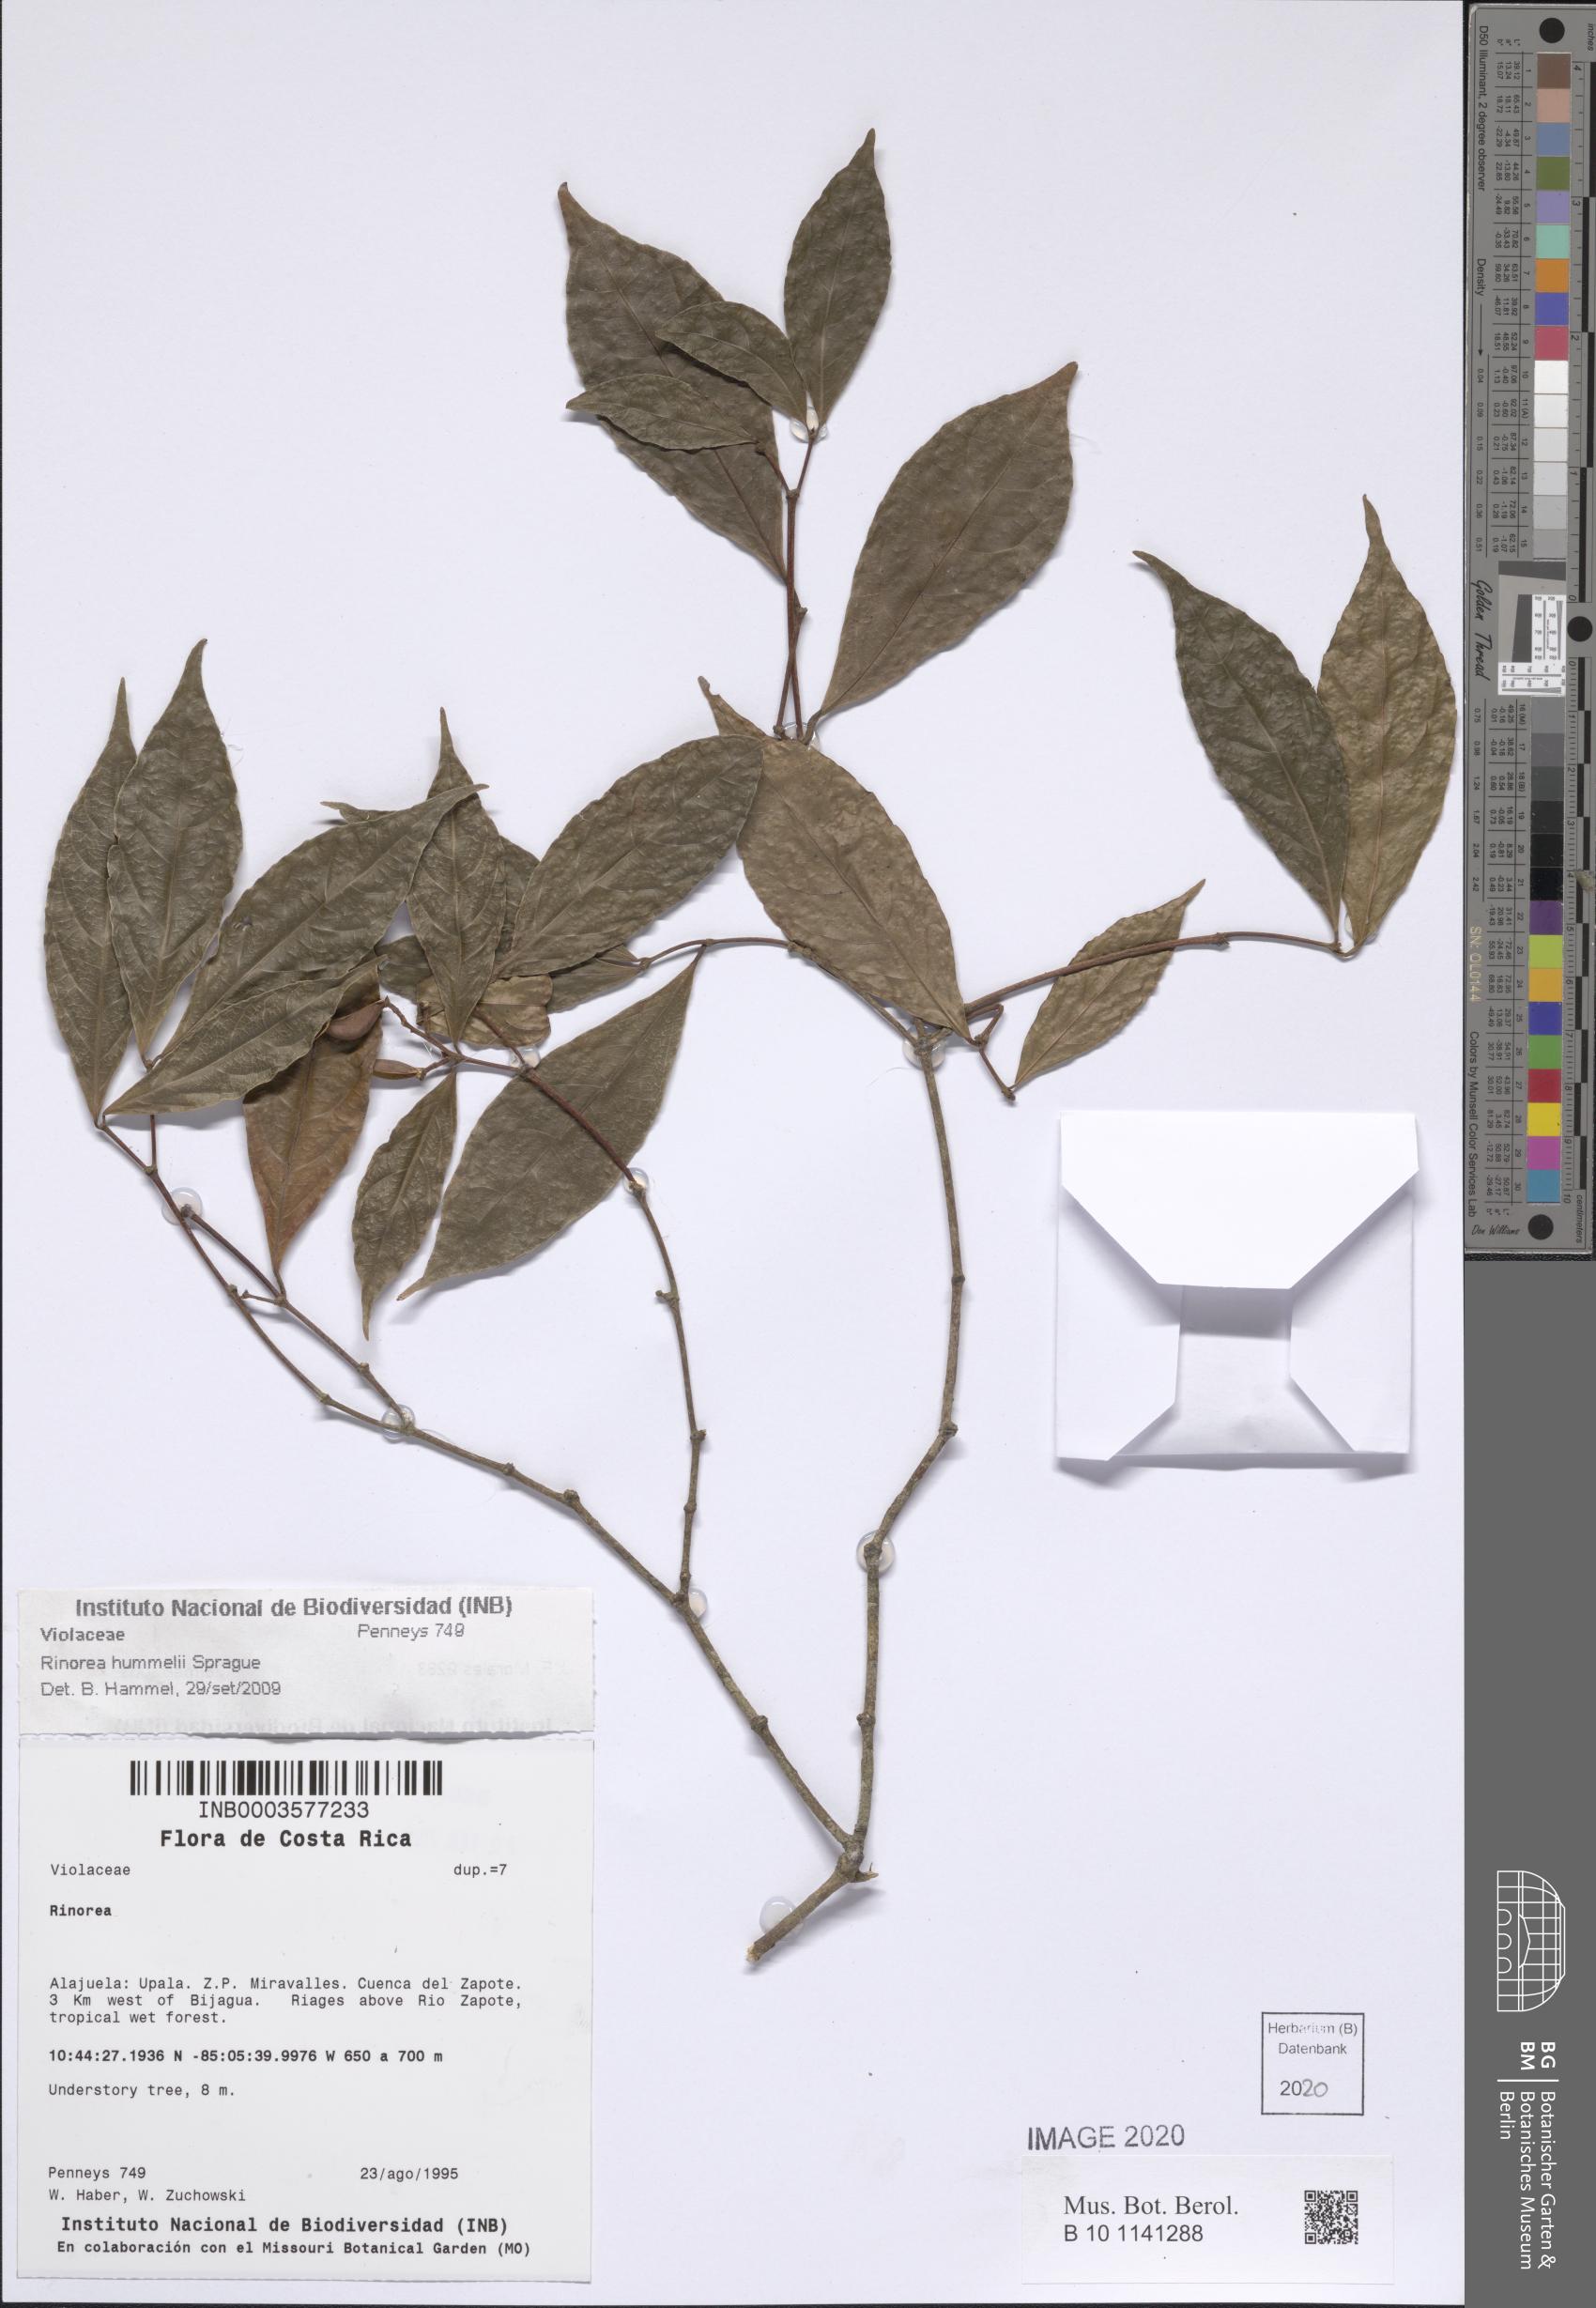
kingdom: Plantae
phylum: Tracheophyta
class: Magnoliopsida
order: Malpighiales
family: Violaceae
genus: Rinorea
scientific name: Rinorea hummelii
